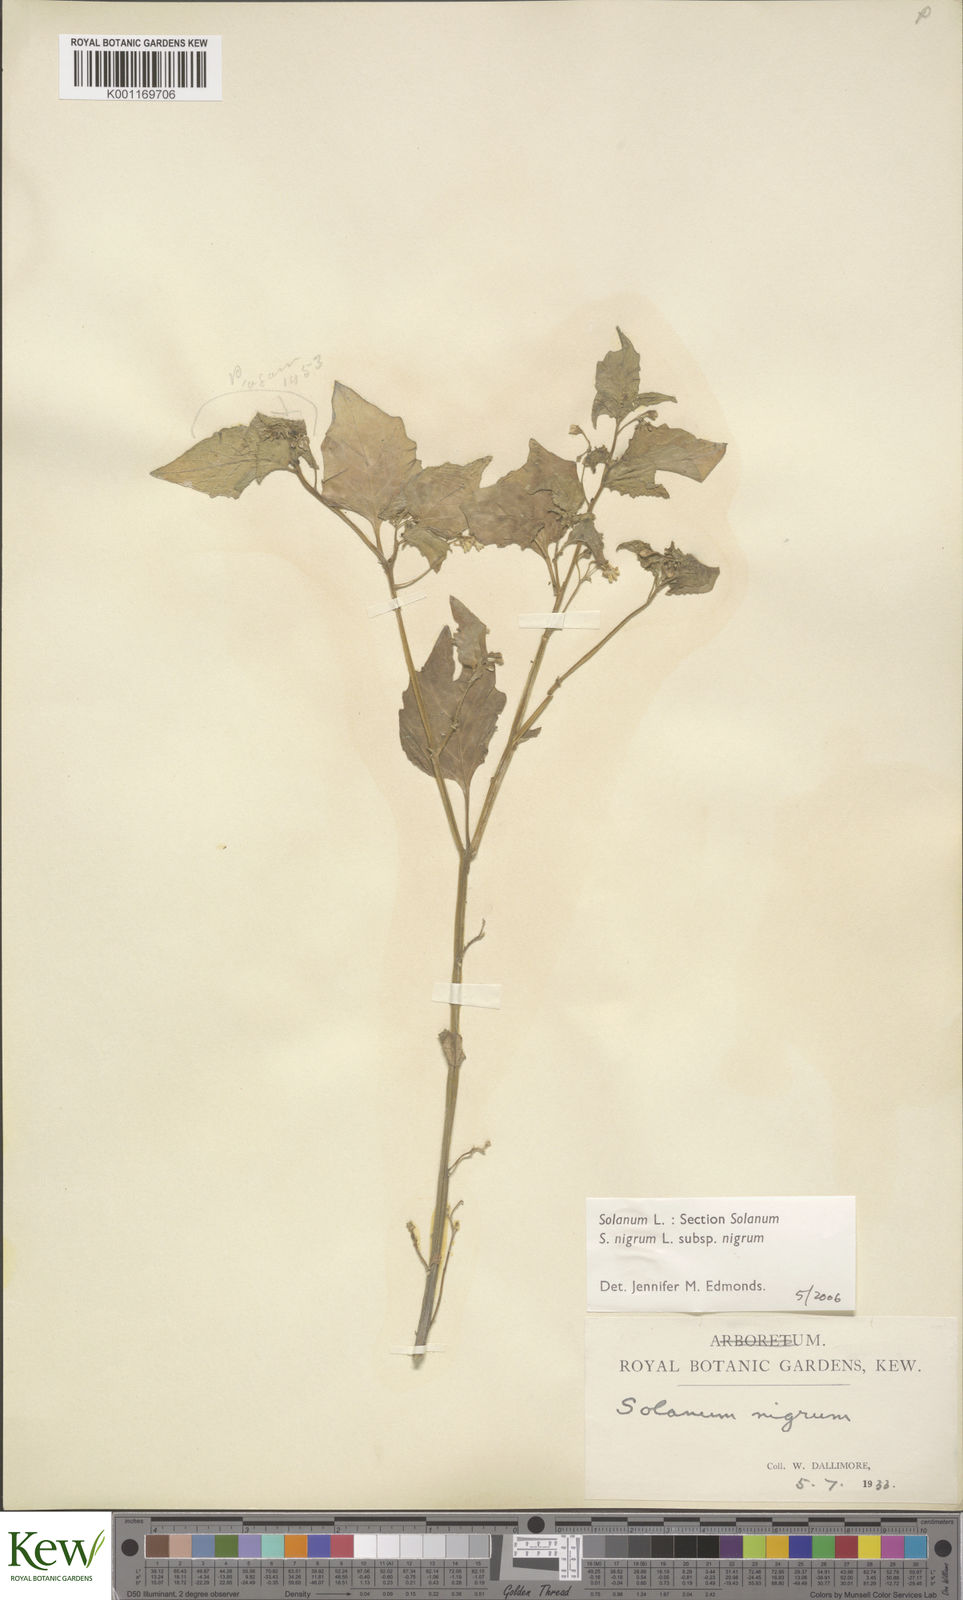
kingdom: Plantae
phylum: Tracheophyta
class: Magnoliopsida
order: Solanales
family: Solanaceae
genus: Solanum
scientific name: Solanum nigrum
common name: Black nightshade
